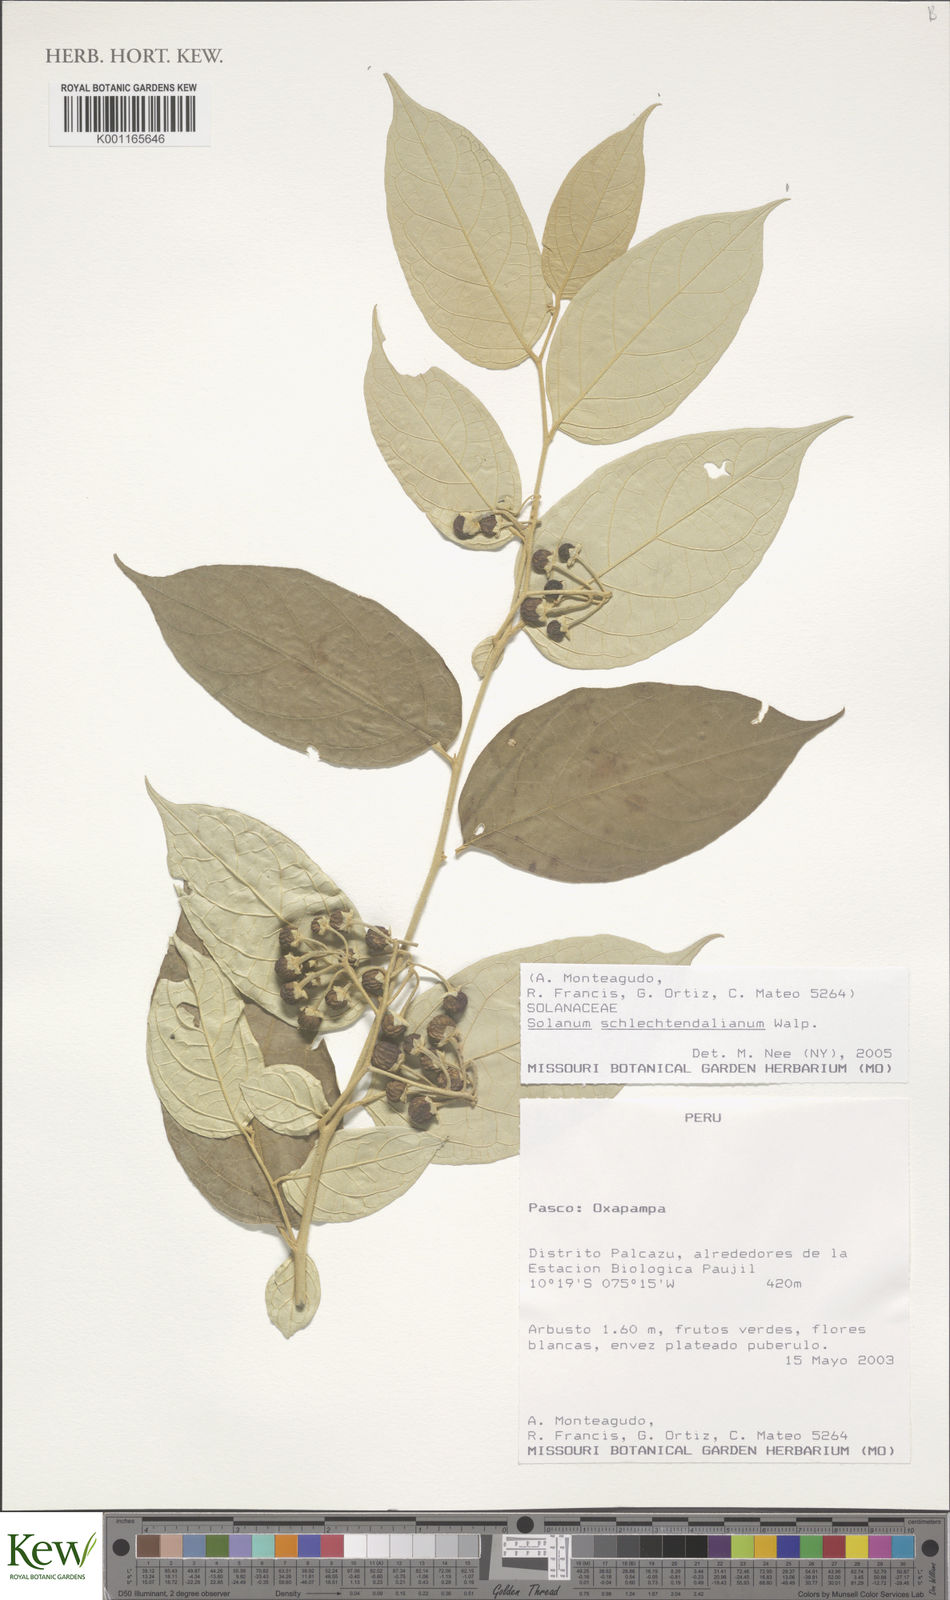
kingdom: Plantae
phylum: Tracheophyta
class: Magnoliopsida
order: Solanales
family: Solanaceae
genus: Solanum
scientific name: Solanum schlechtendalianum
